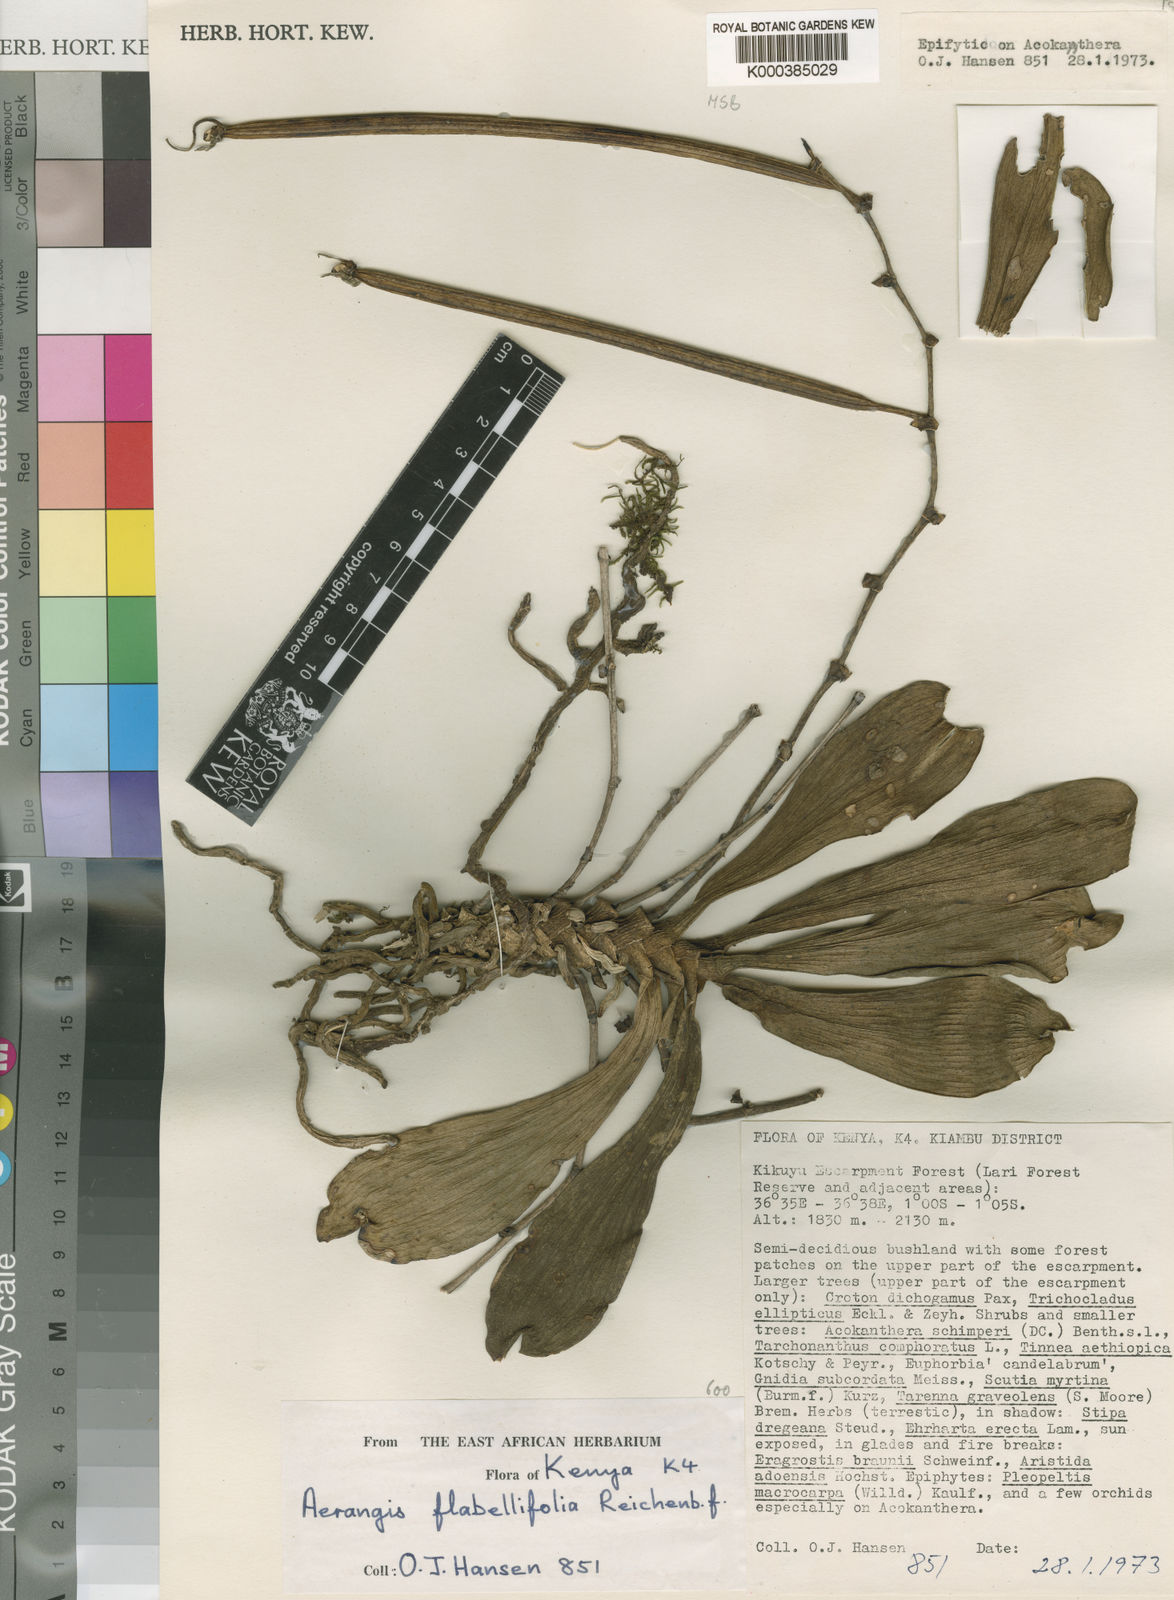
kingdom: Plantae
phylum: Tracheophyta
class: Liliopsida
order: Asparagales
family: Orchidaceae
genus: Aerangis
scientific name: Aerangis brachycarpa
